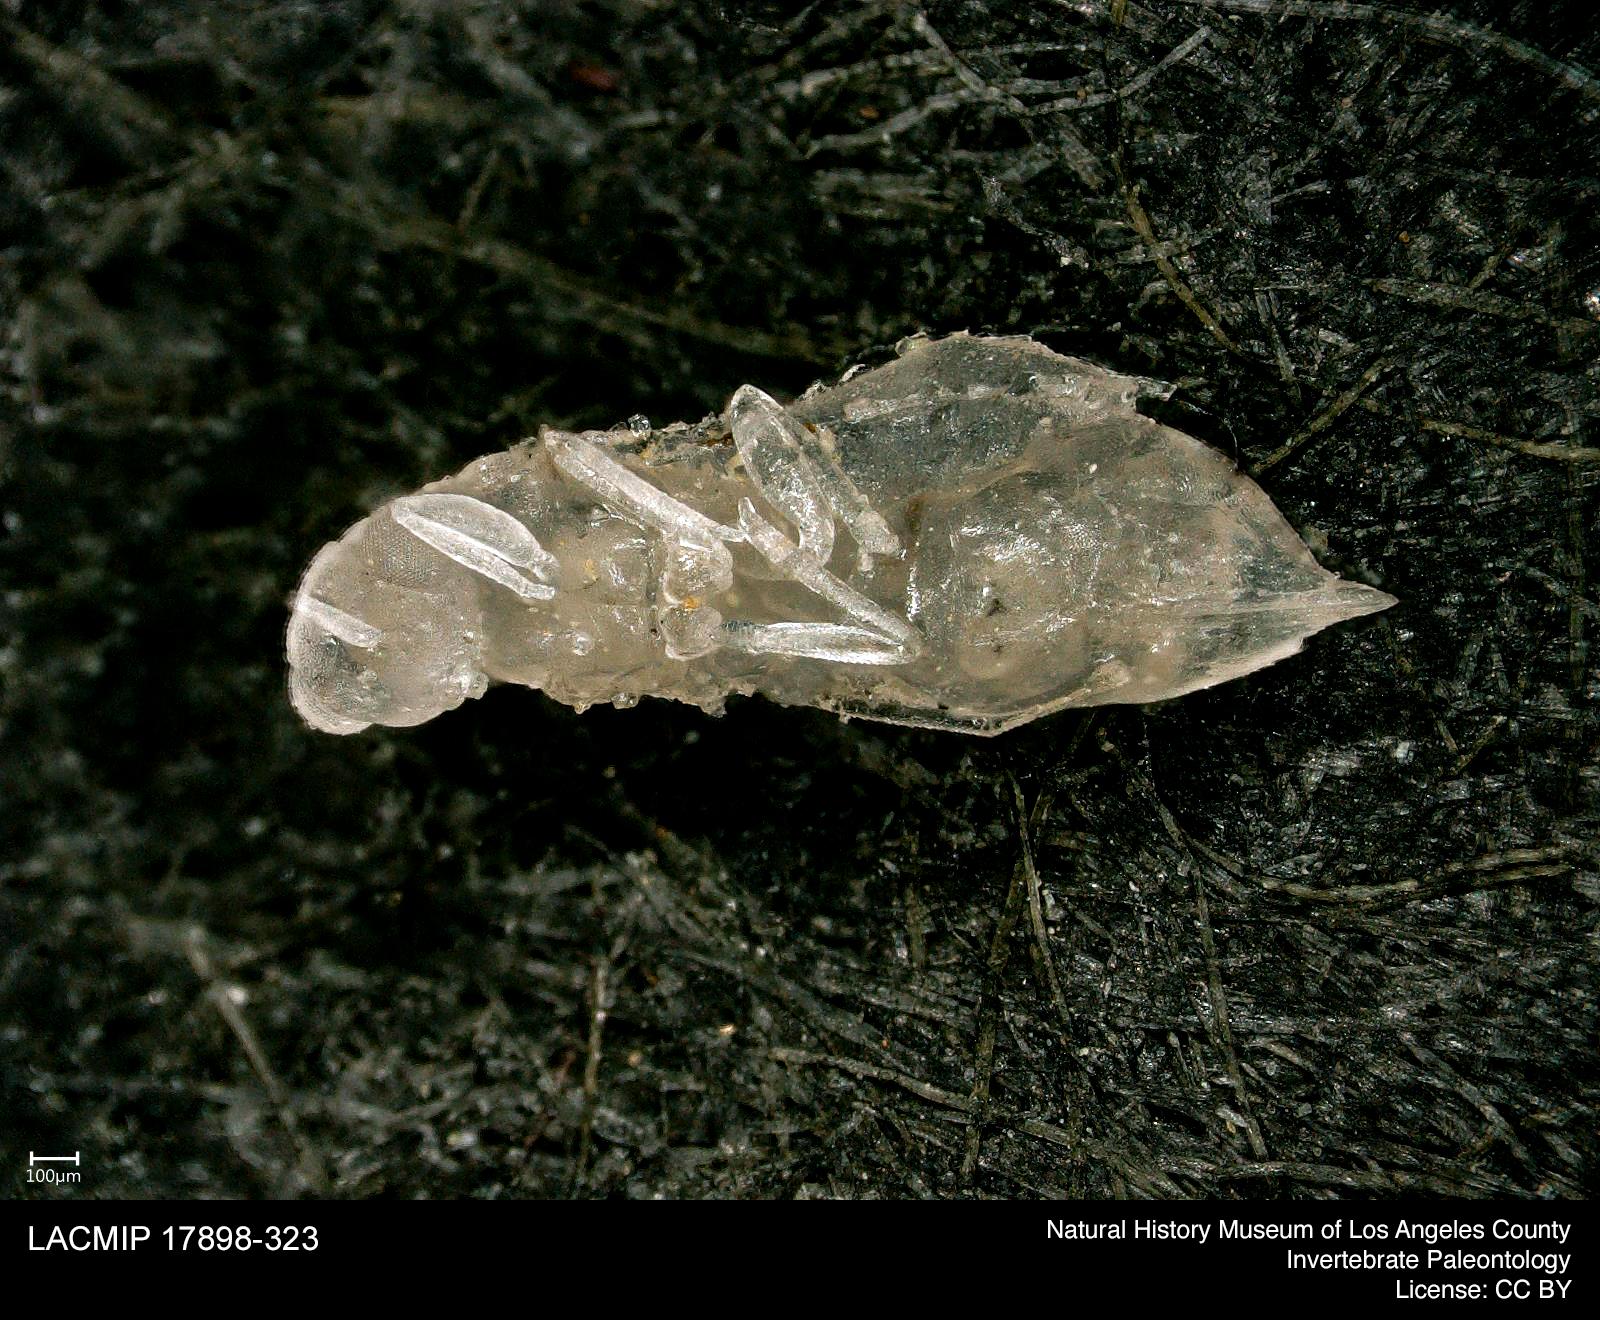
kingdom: Animalia
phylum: Arthropoda
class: Insecta
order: Hymenoptera
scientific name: Hymenoptera
